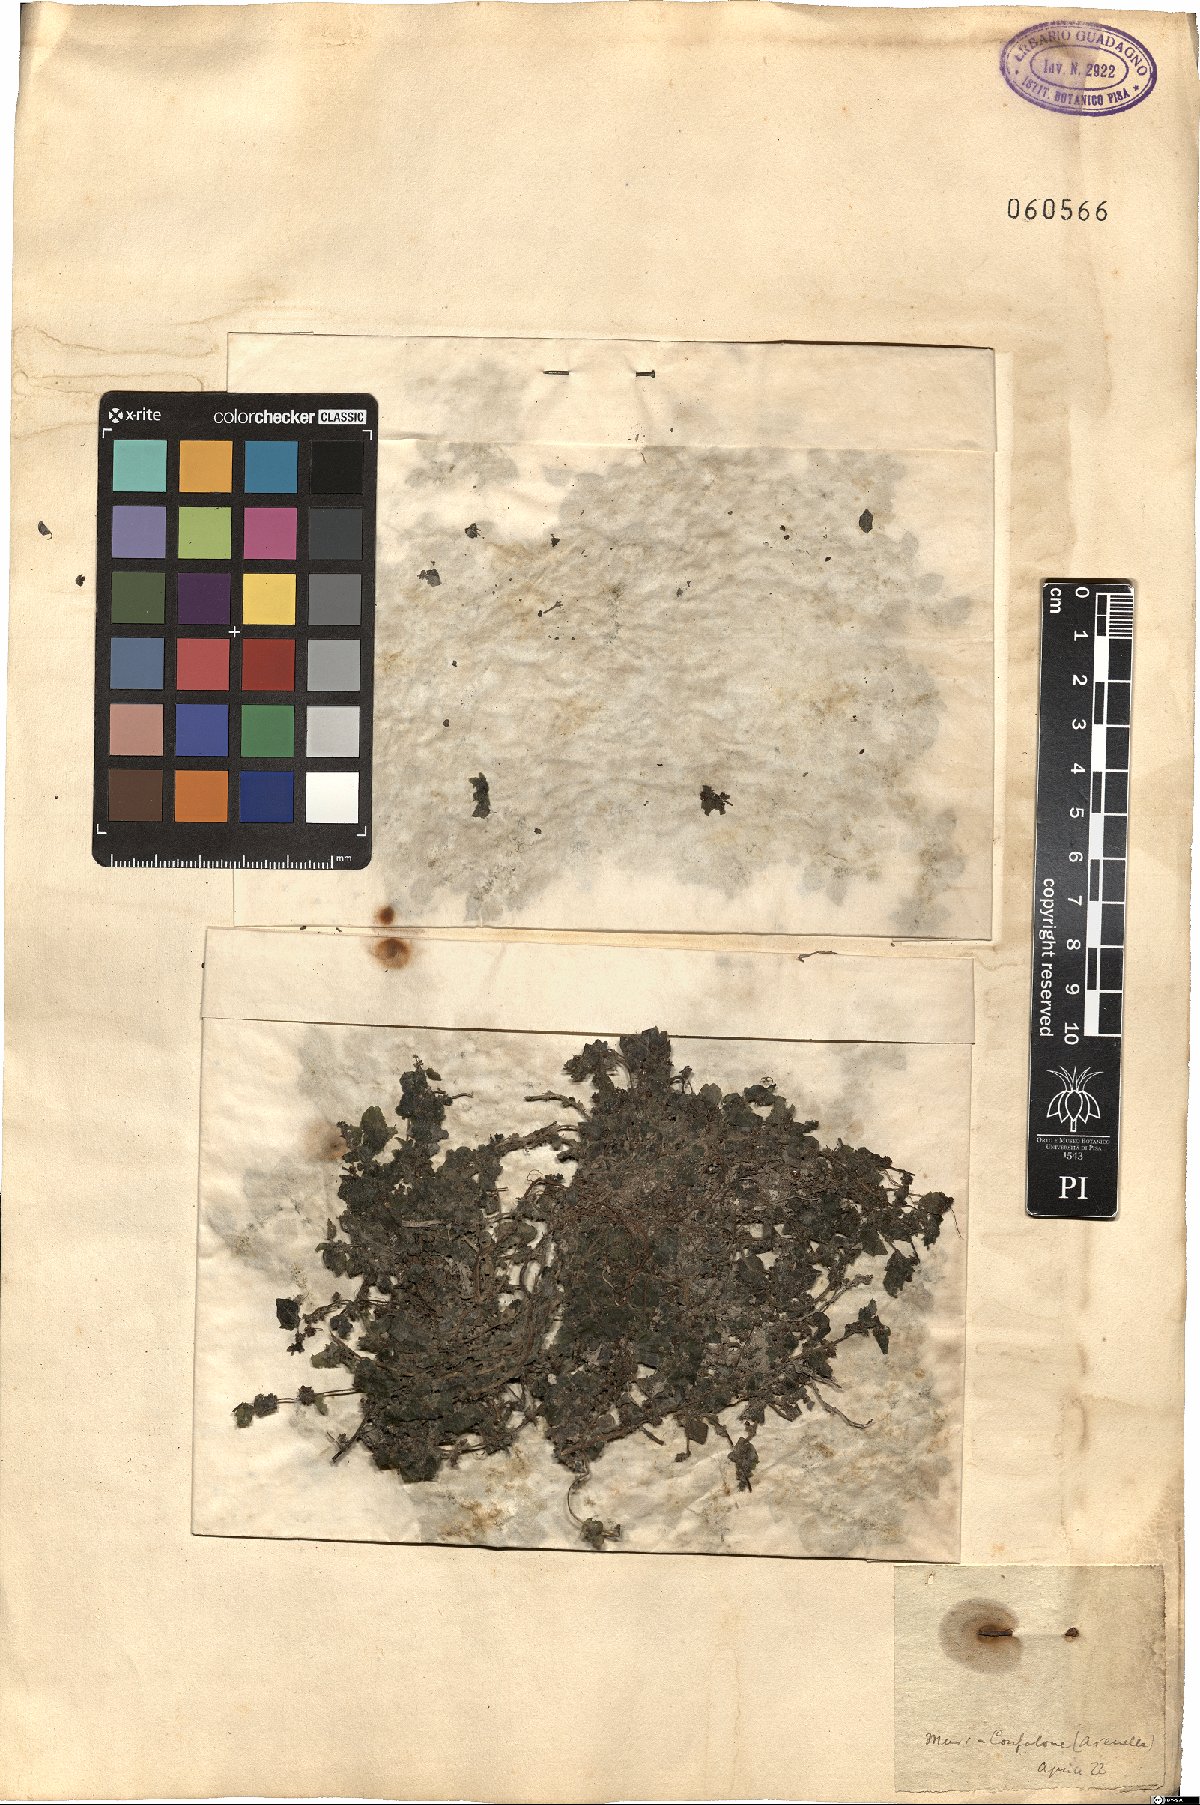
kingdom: Plantae
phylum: Tracheophyta
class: Magnoliopsida
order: Rosales
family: Urticaceae
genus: Parietaria
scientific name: Parietaria lusitanica
